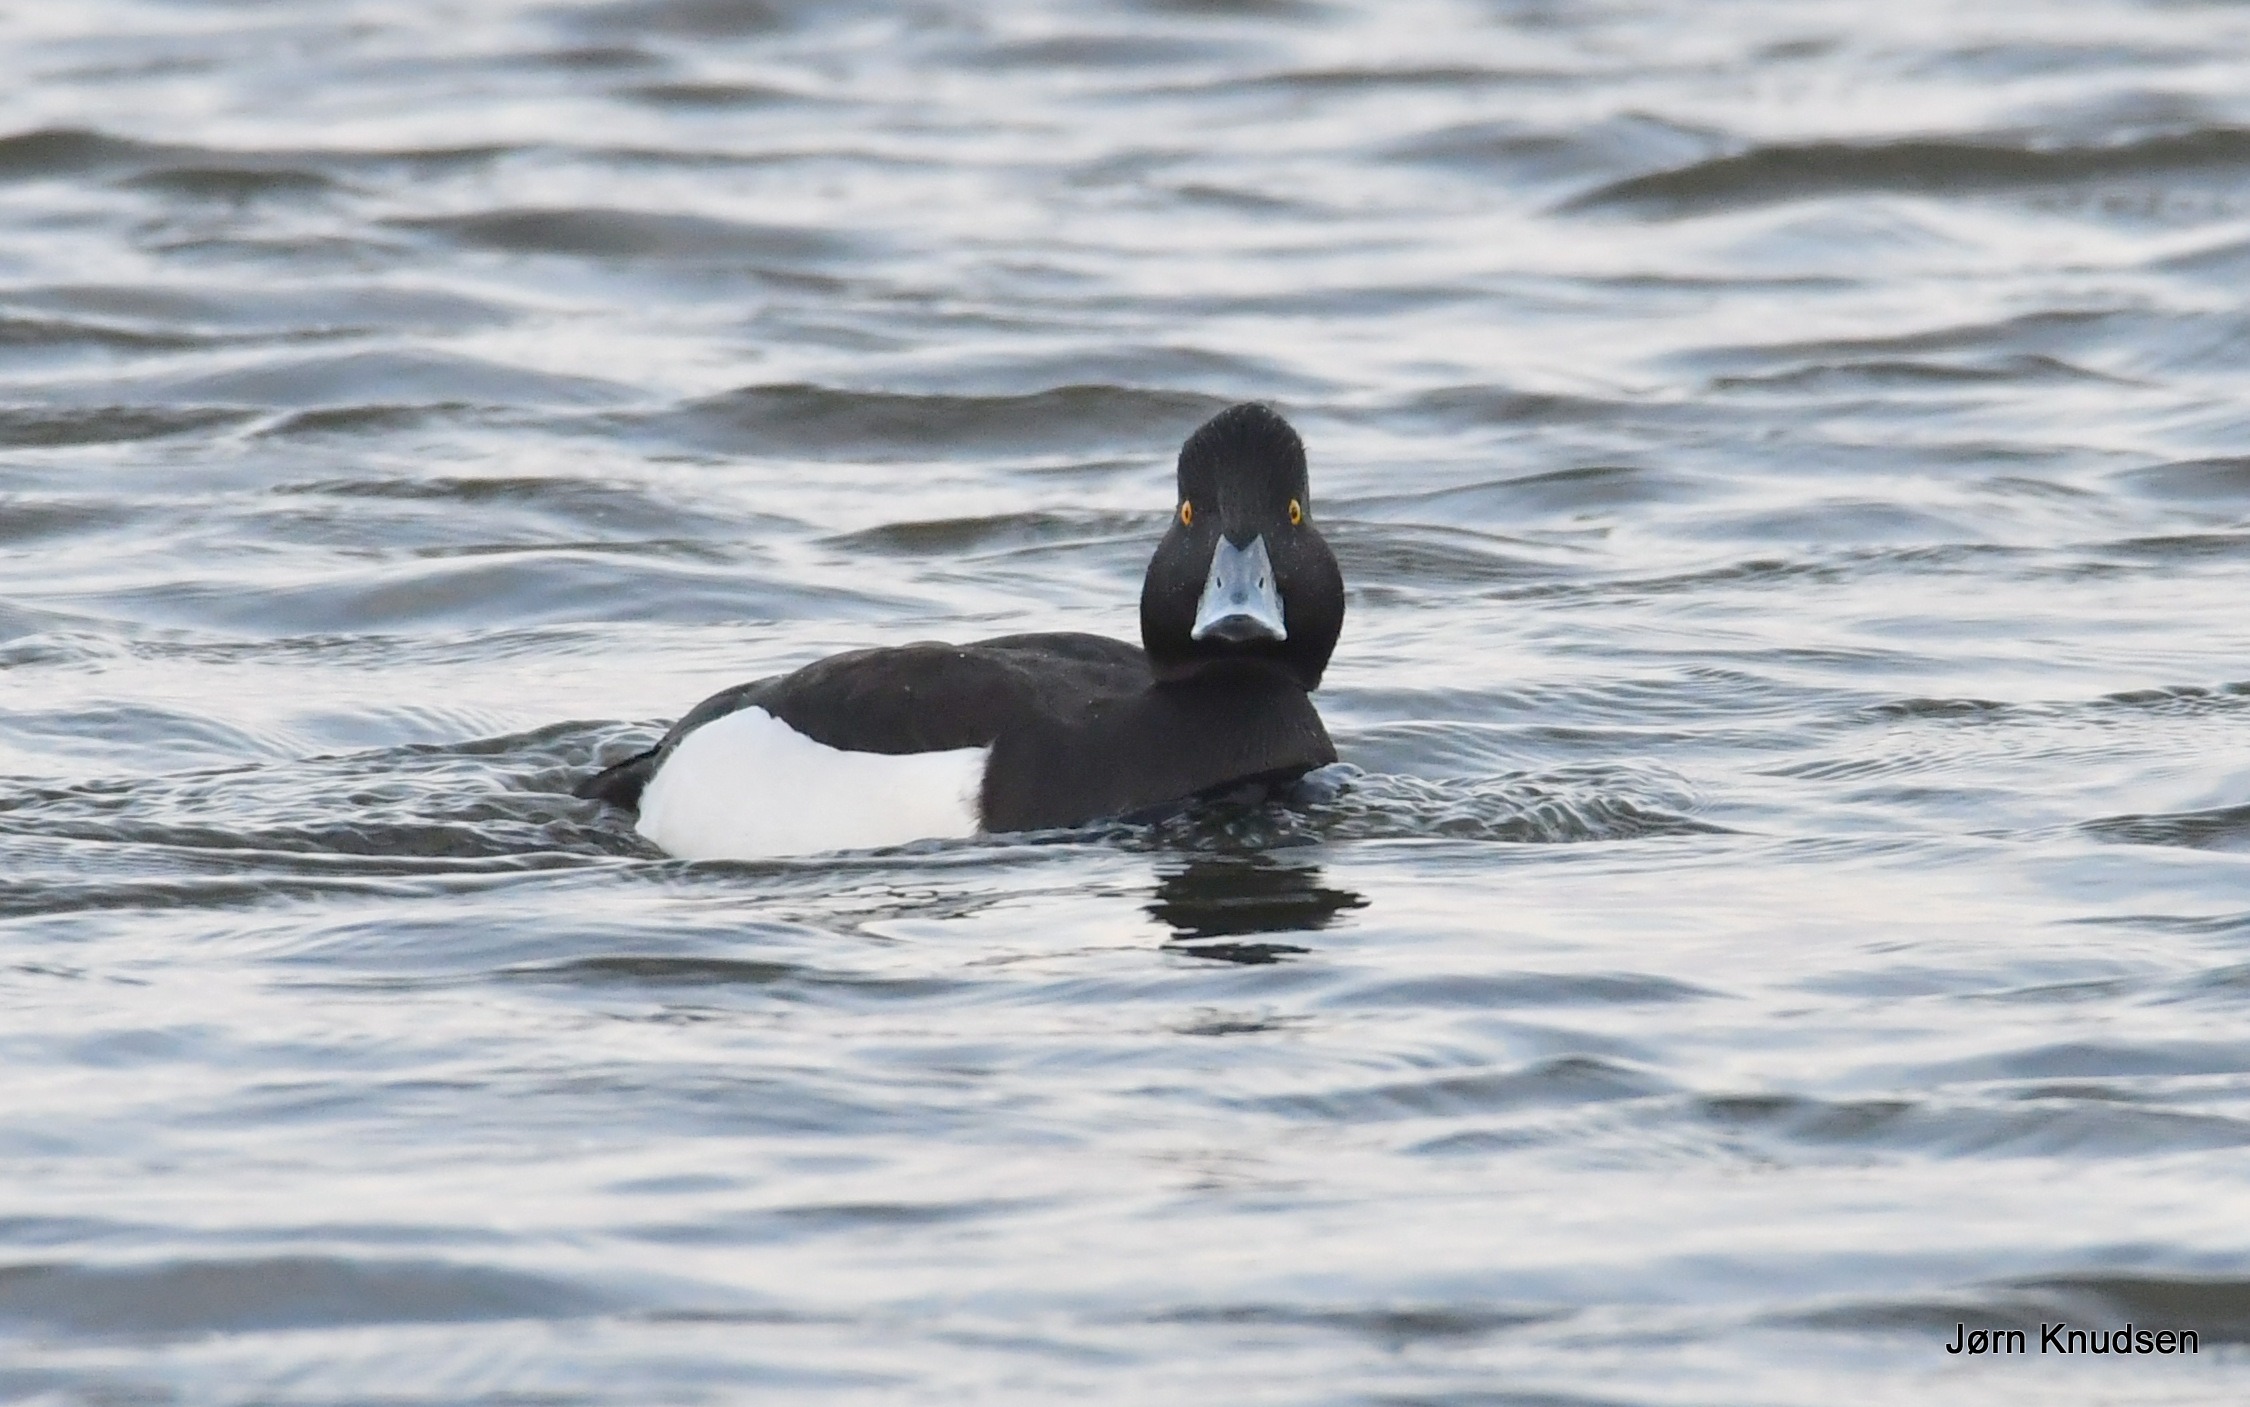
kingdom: Animalia
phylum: Chordata
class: Aves
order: Anseriformes
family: Anatidae
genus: Aythya
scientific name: Aythya fuligula
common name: Troldand
